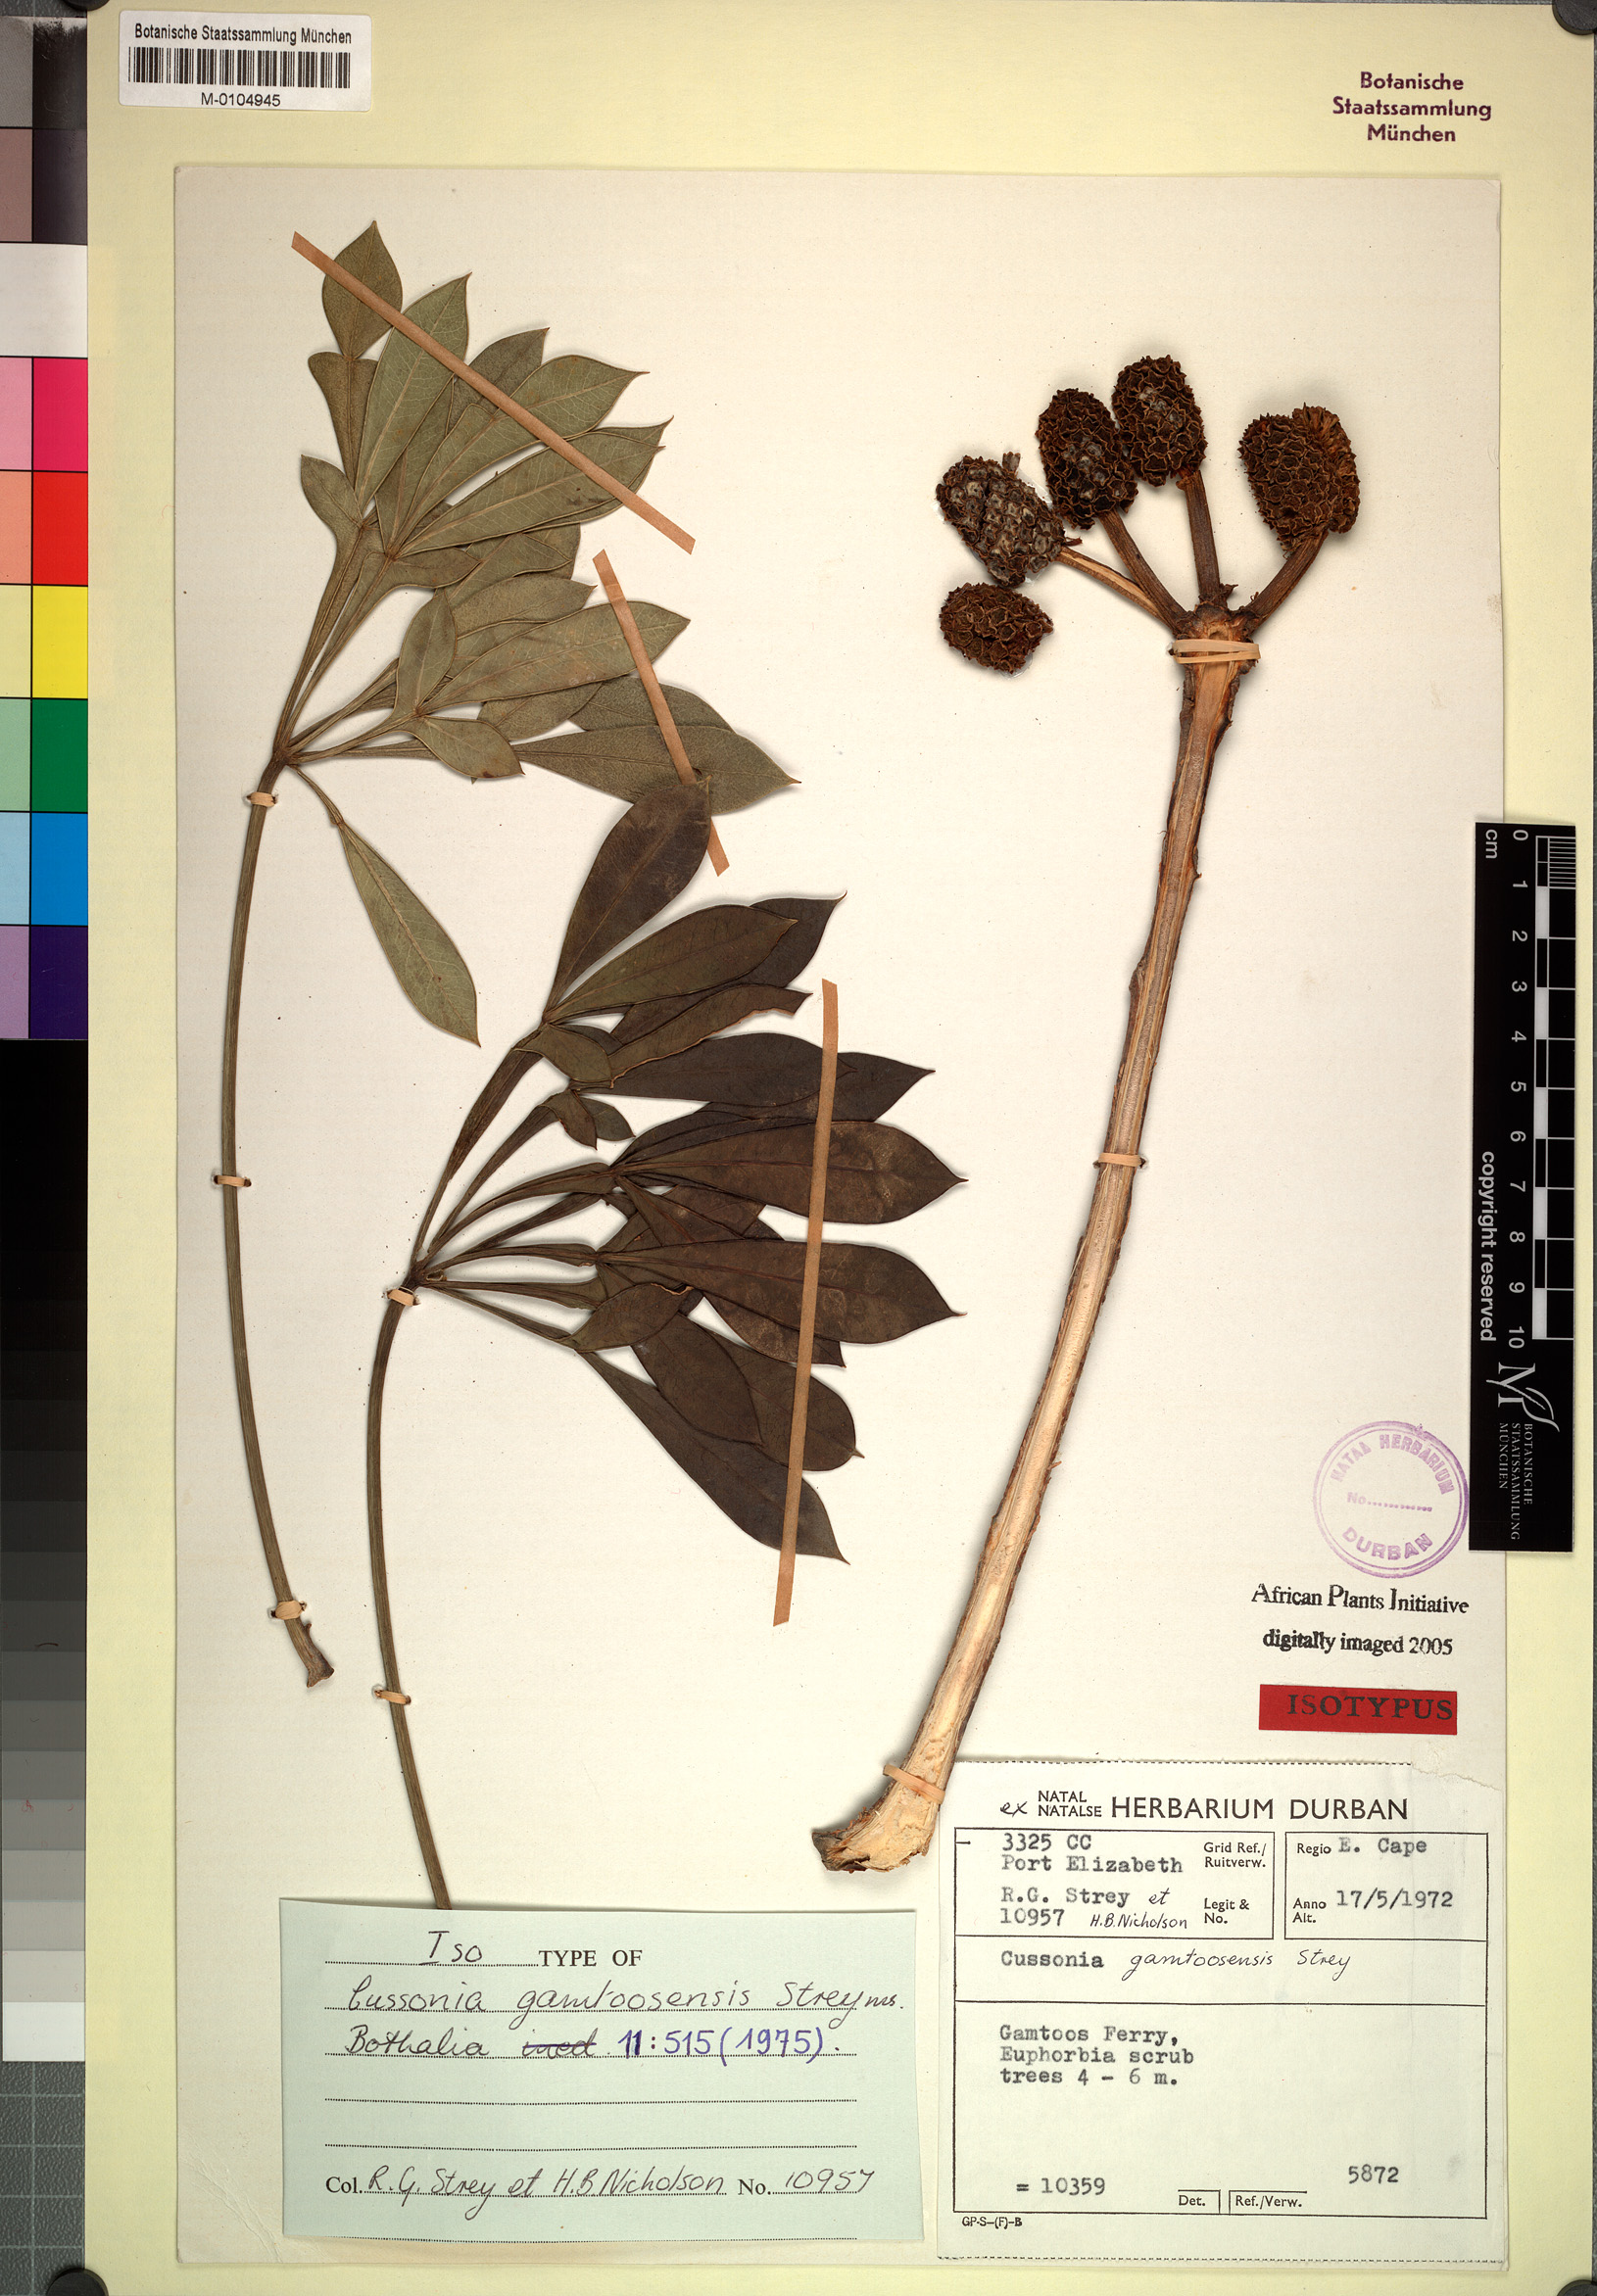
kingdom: Plantae
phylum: Tracheophyta
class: Magnoliopsida
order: Apiales
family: Araliaceae
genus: Cussonia
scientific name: Cussonia gamtoosensis
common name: Gamtoos cabbage tree
